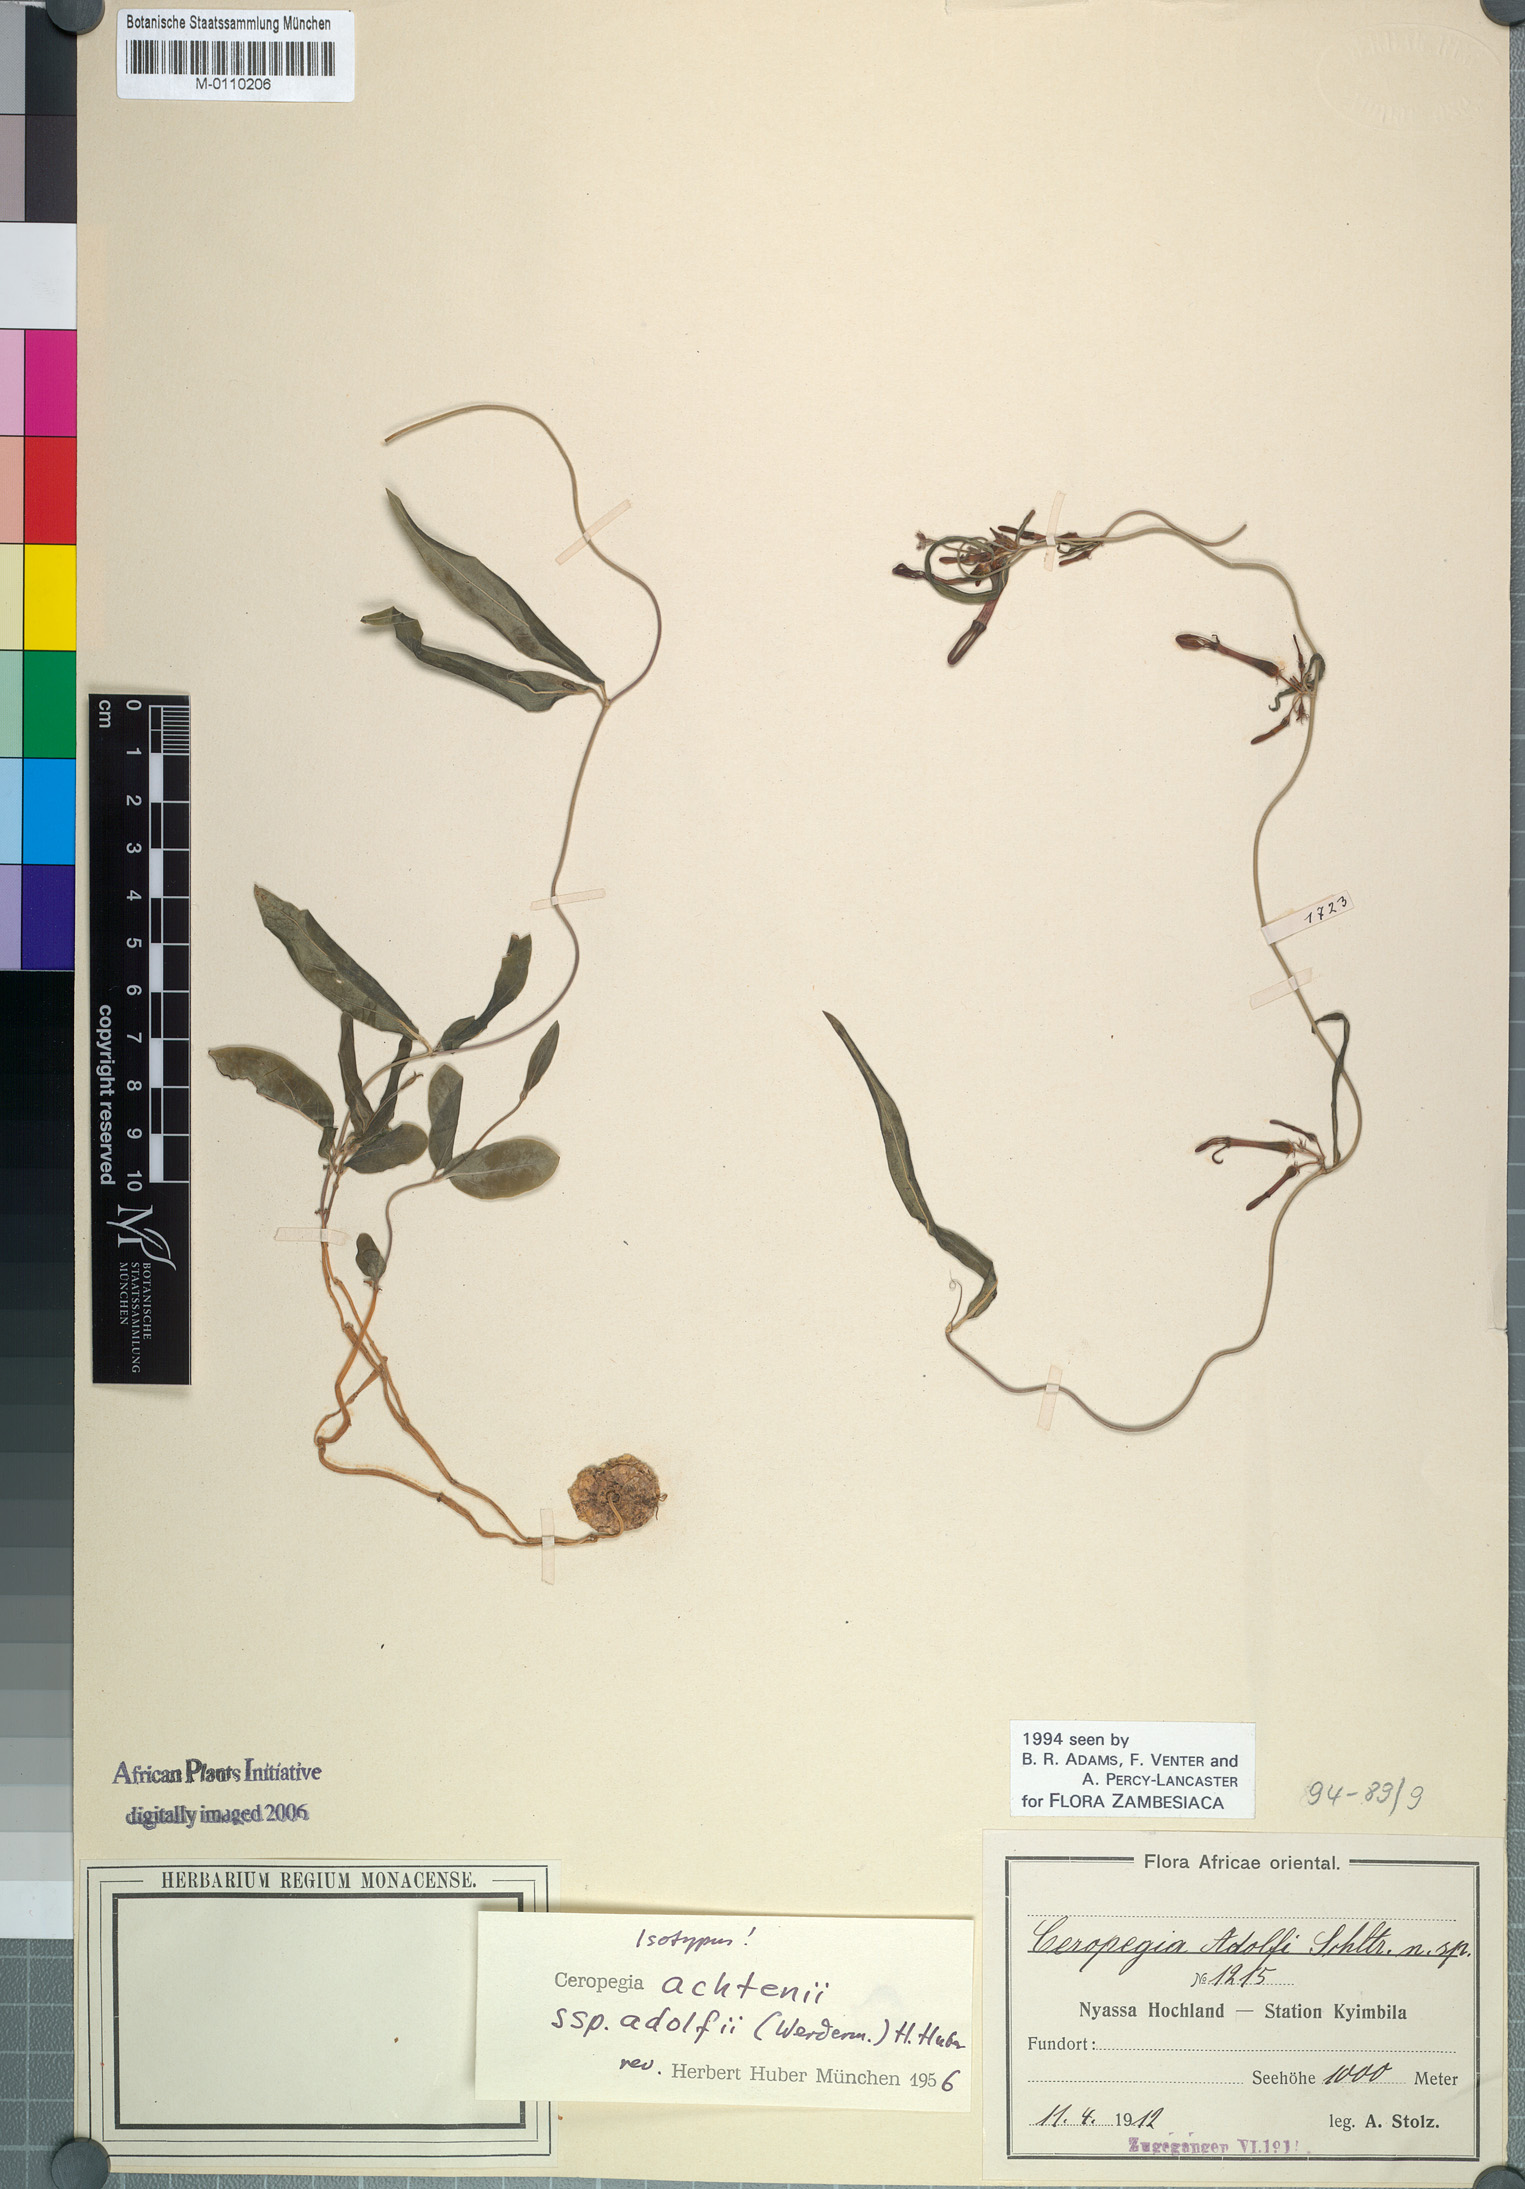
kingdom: Plantae
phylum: Tracheophyta
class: Magnoliopsida
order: Gentianales
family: Apocynaceae
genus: Ceropegia
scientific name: Ceropegia achtenii
